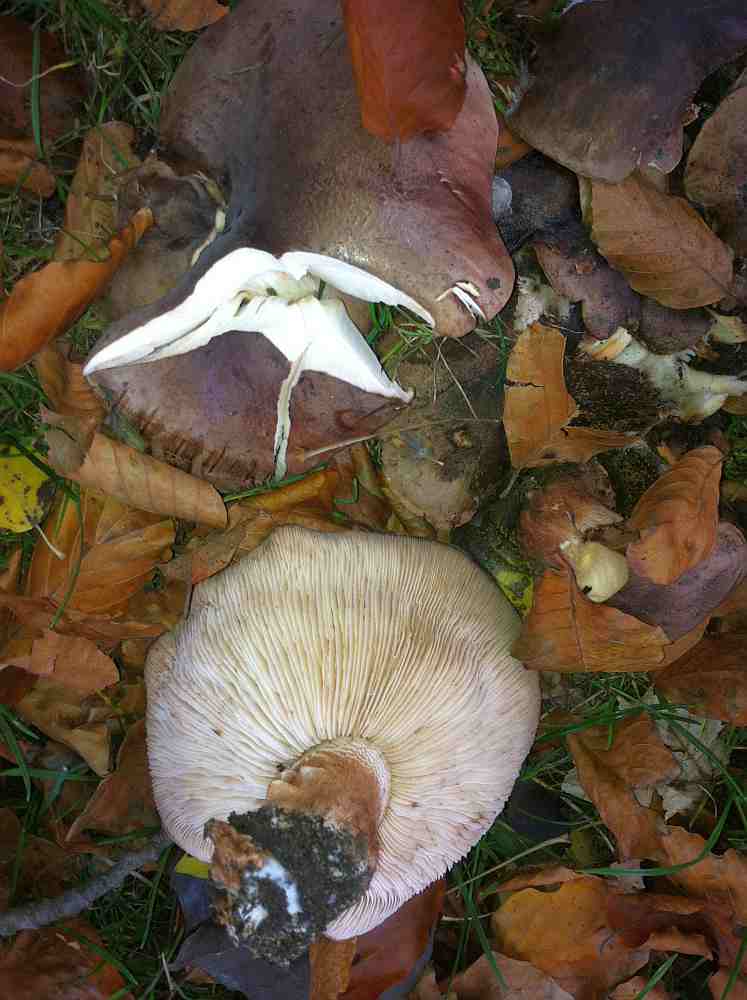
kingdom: Fungi
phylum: Basidiomycota
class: Agaricomycetes
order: Agaricales
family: Tricholomataceae
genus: Tricholoma
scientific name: Tricholoma populinum
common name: poppel-ridderhat
